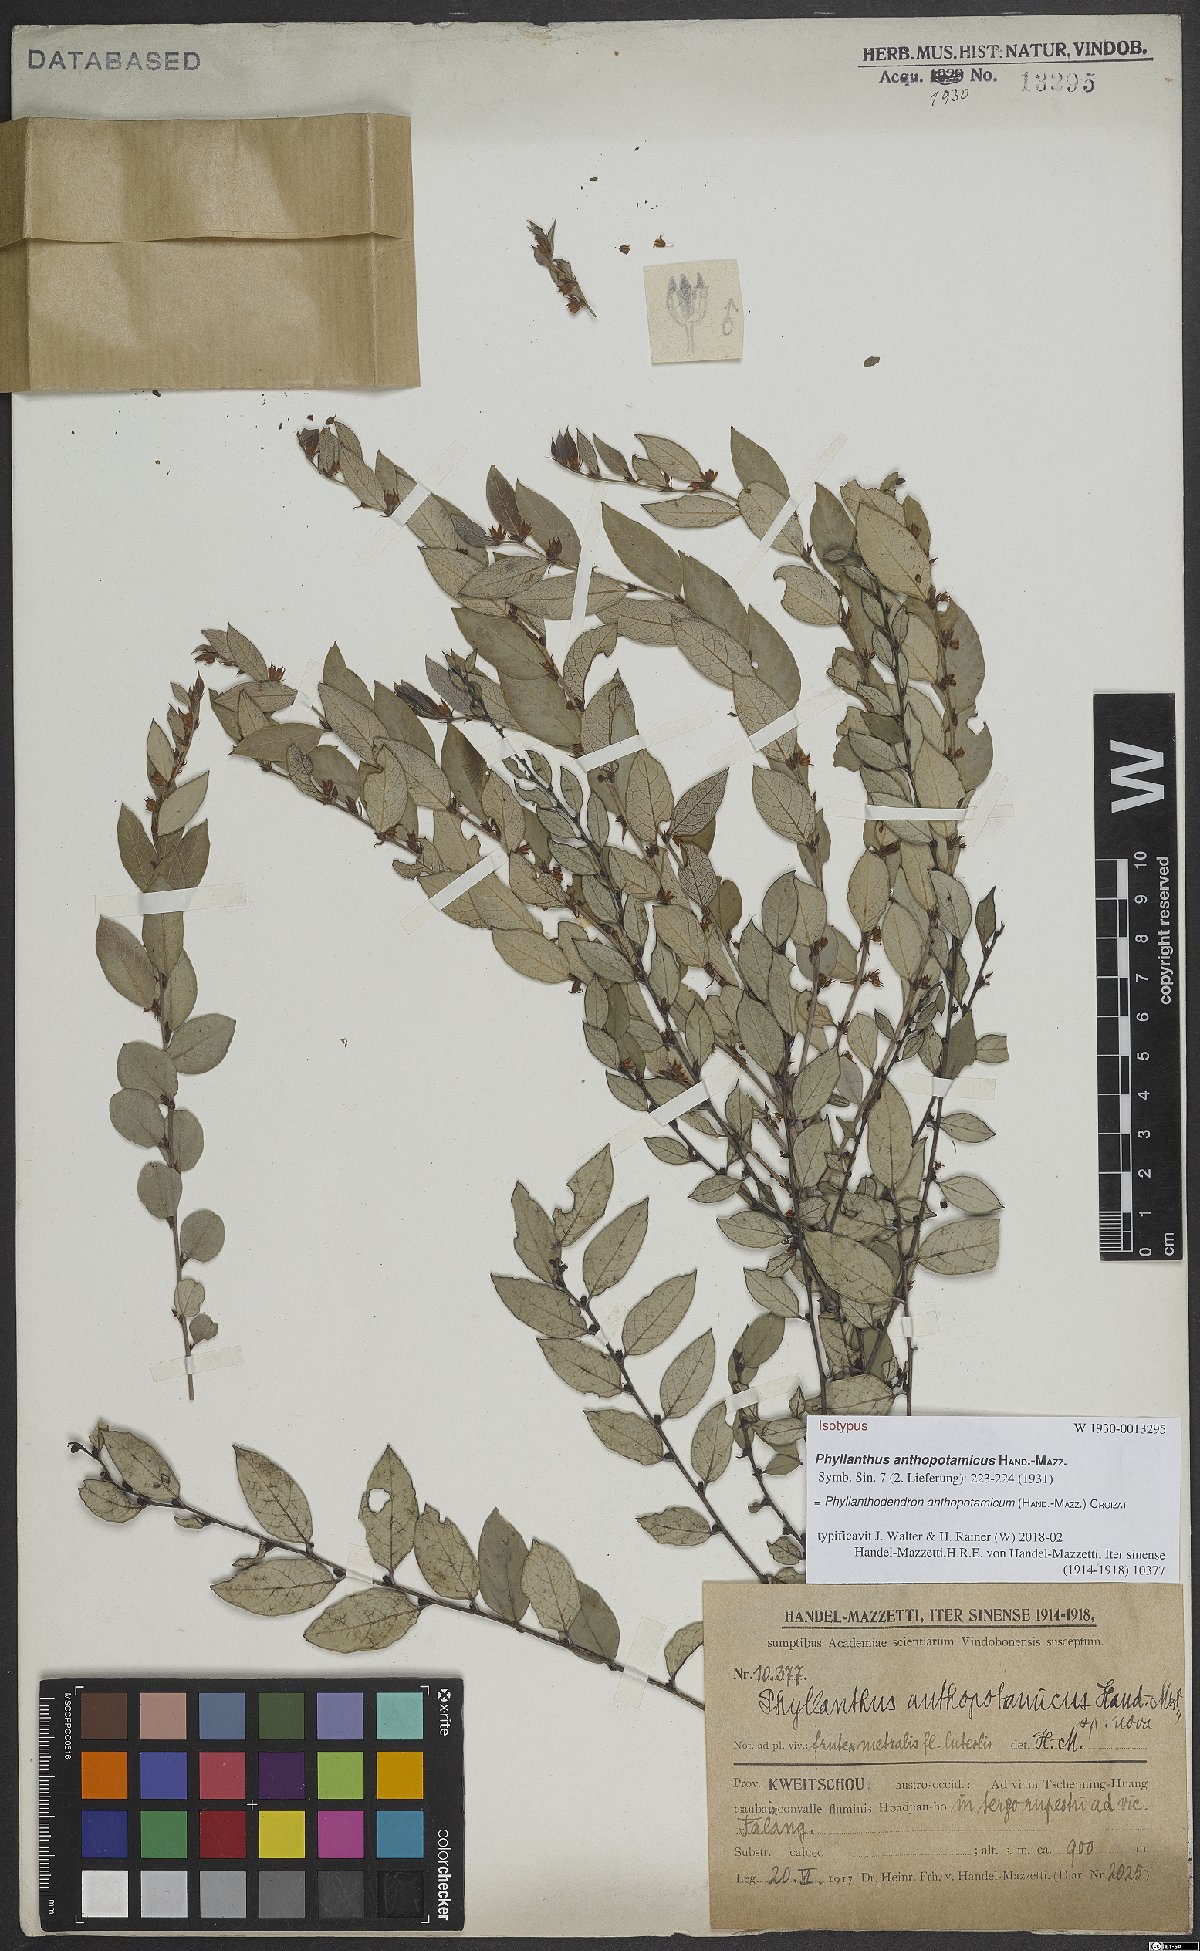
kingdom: Plantae
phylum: Tracheophyta
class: Magnoliopsida
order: Malpighiales
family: Phyllanthaceae
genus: Phyllanthus
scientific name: Phyllanthus anthopotamicus
